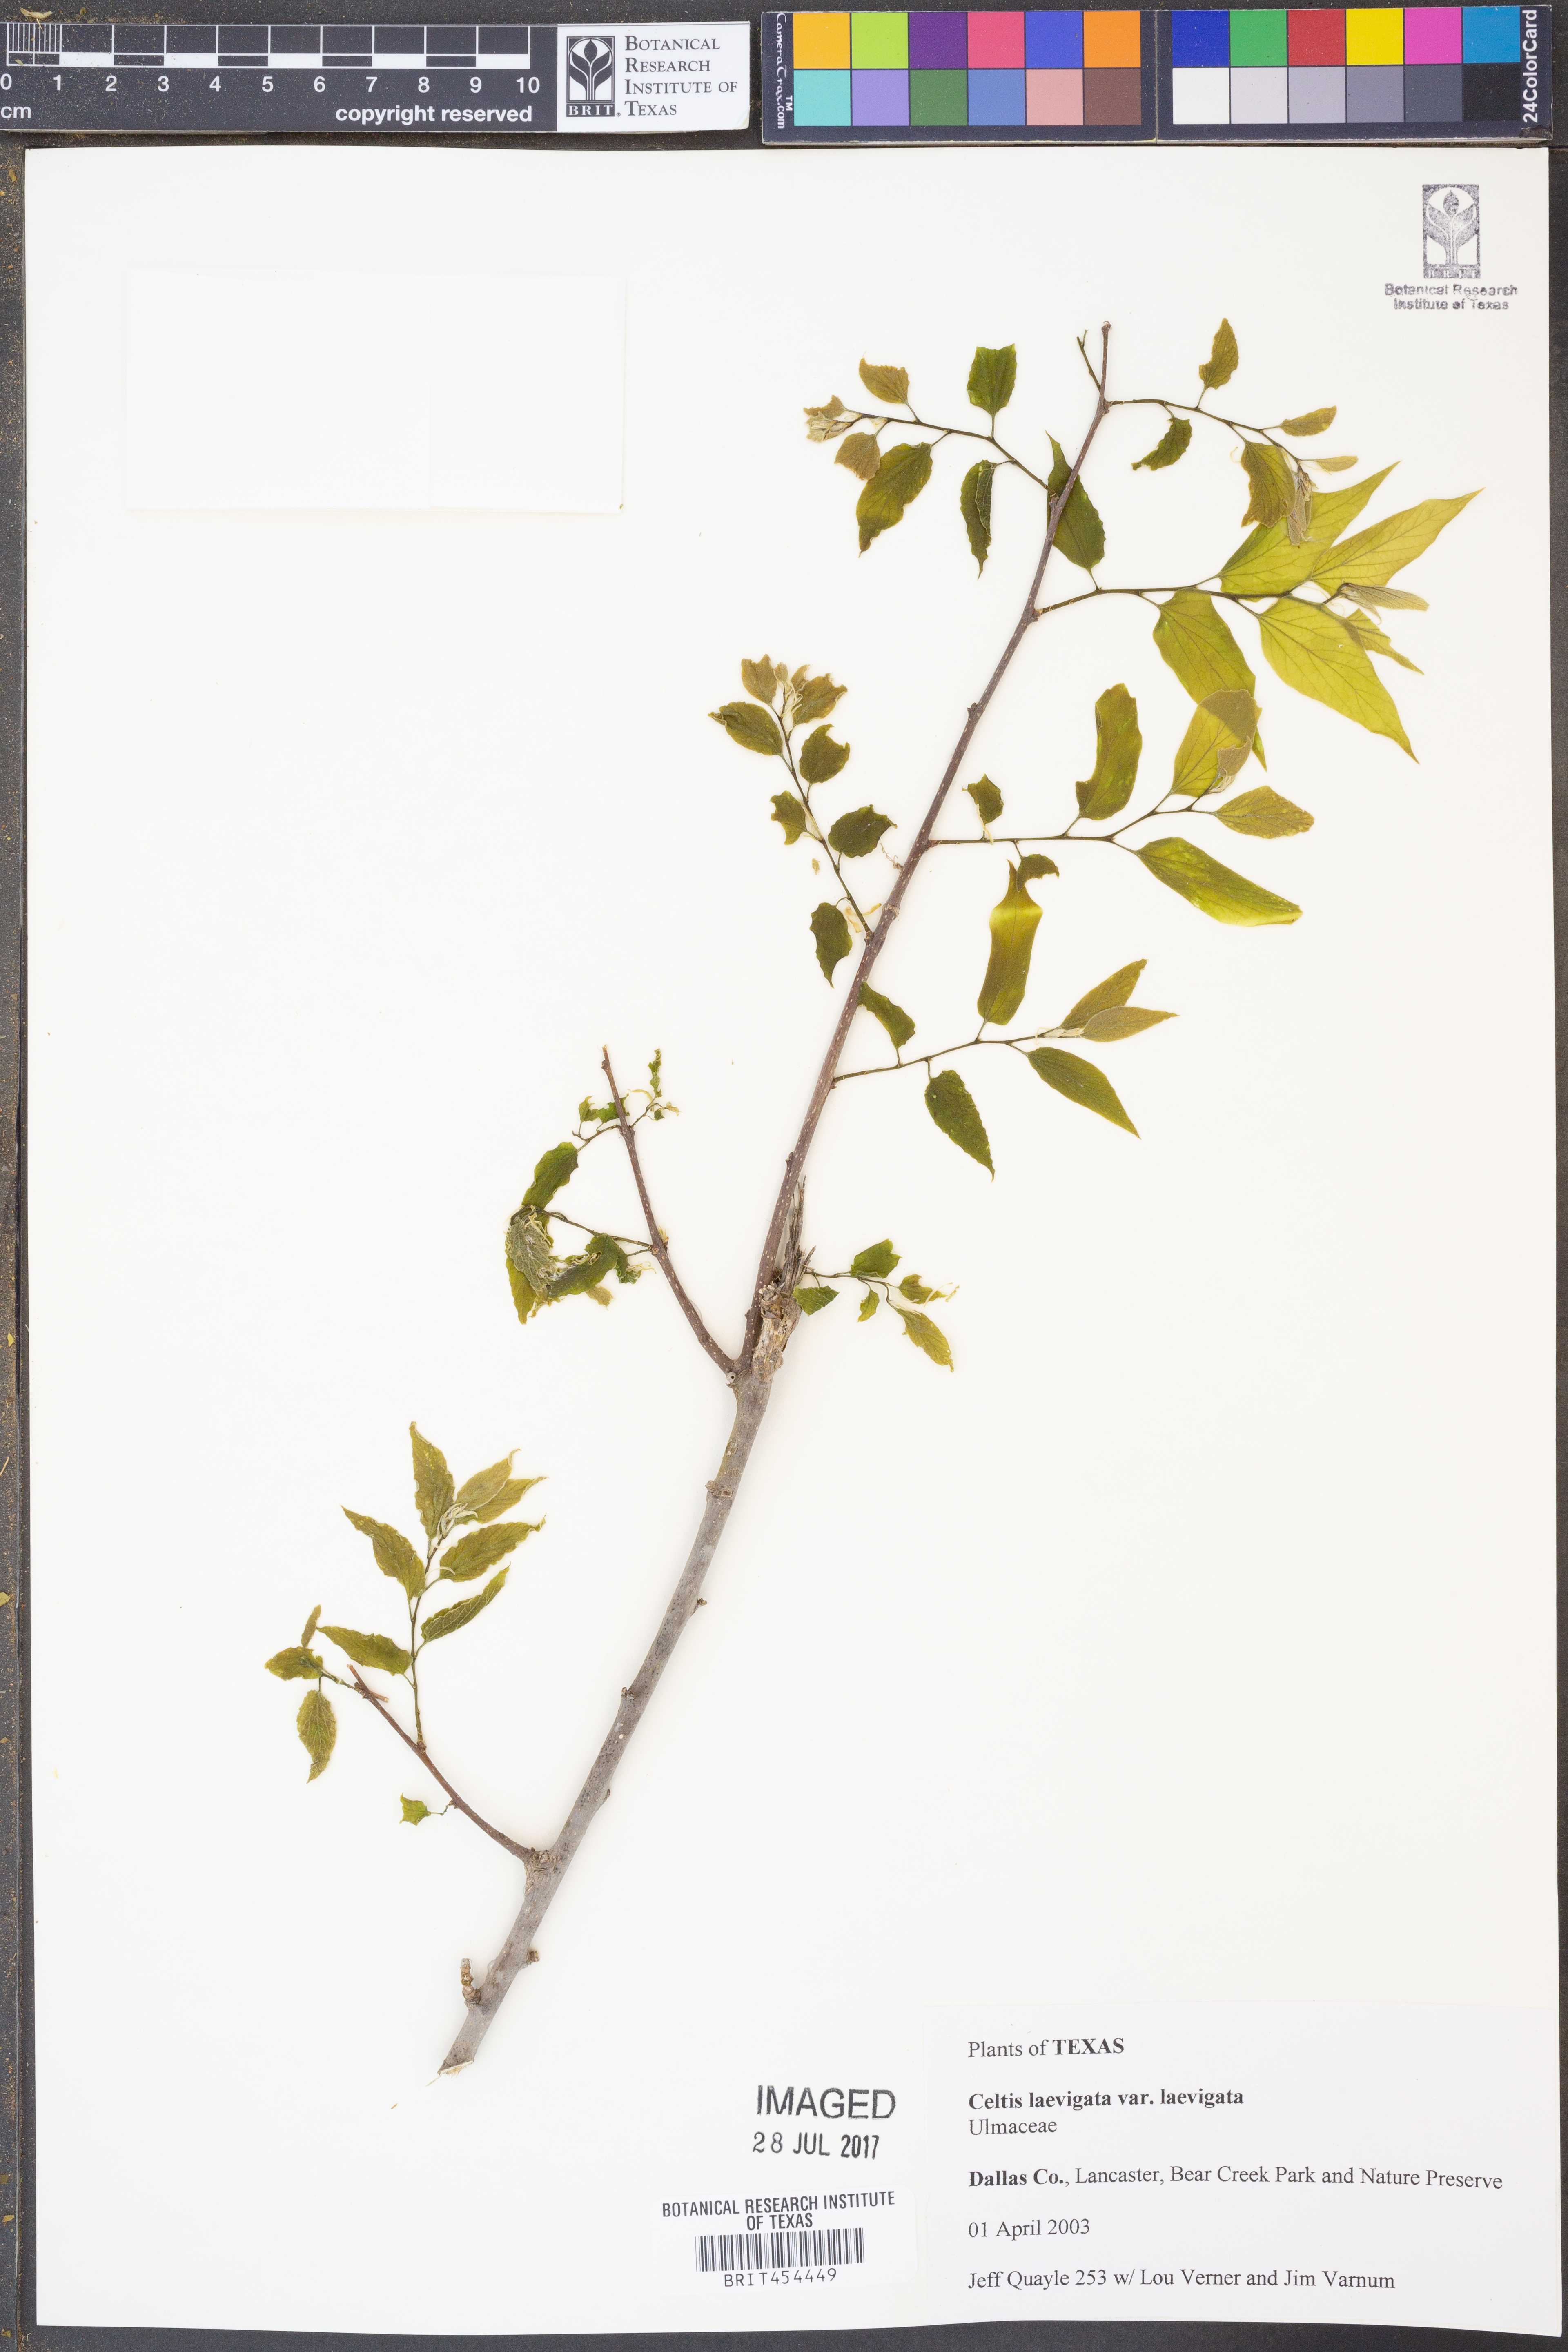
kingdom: Plantae
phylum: Tracheophyta
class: Magnoliopsida
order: Rosales
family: Cannabaceae
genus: Celtis
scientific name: Celtis laevigata
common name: Sugarberry
